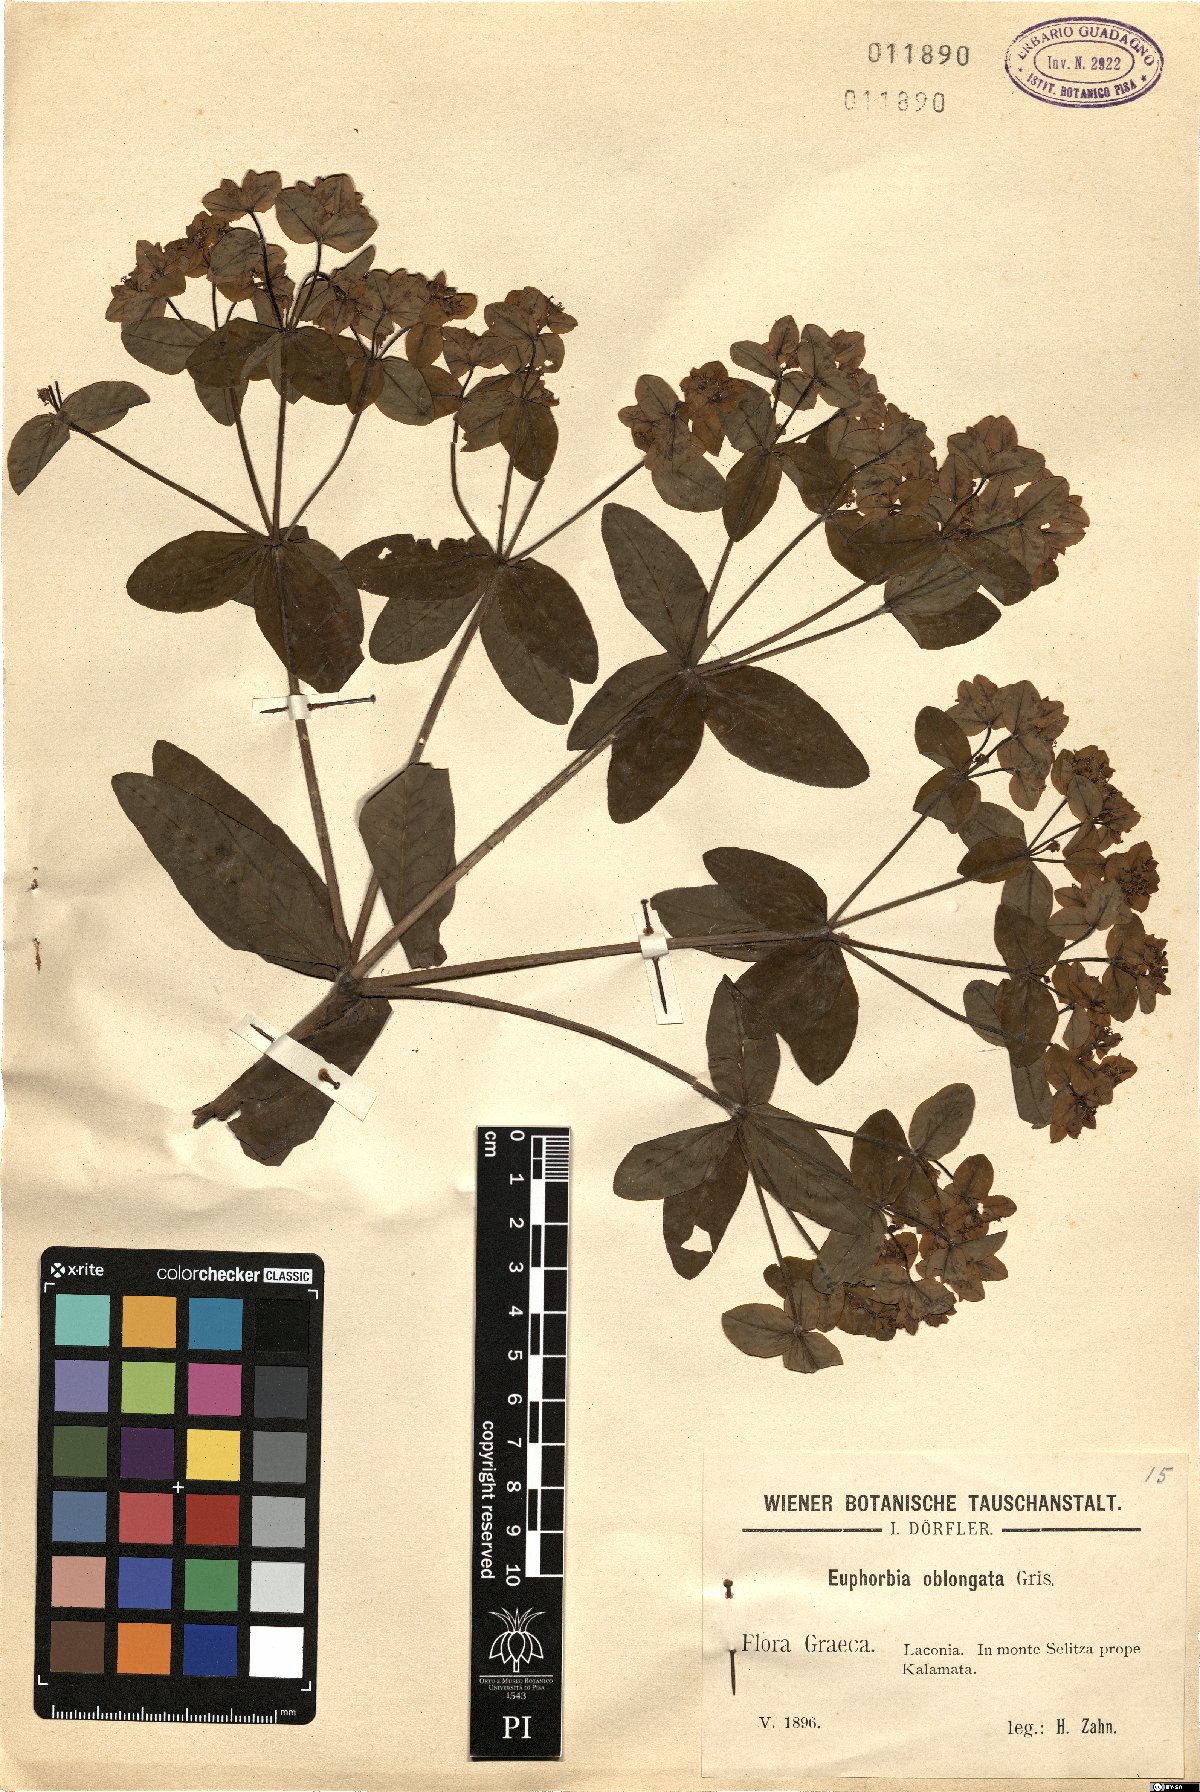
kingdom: Plantae
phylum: Tracheophyta
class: Magnoliopsida
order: Malpighiales
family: Euphorbiaceae
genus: Euphorbia
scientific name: Euphorbia oblongata
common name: Balkan spurge
